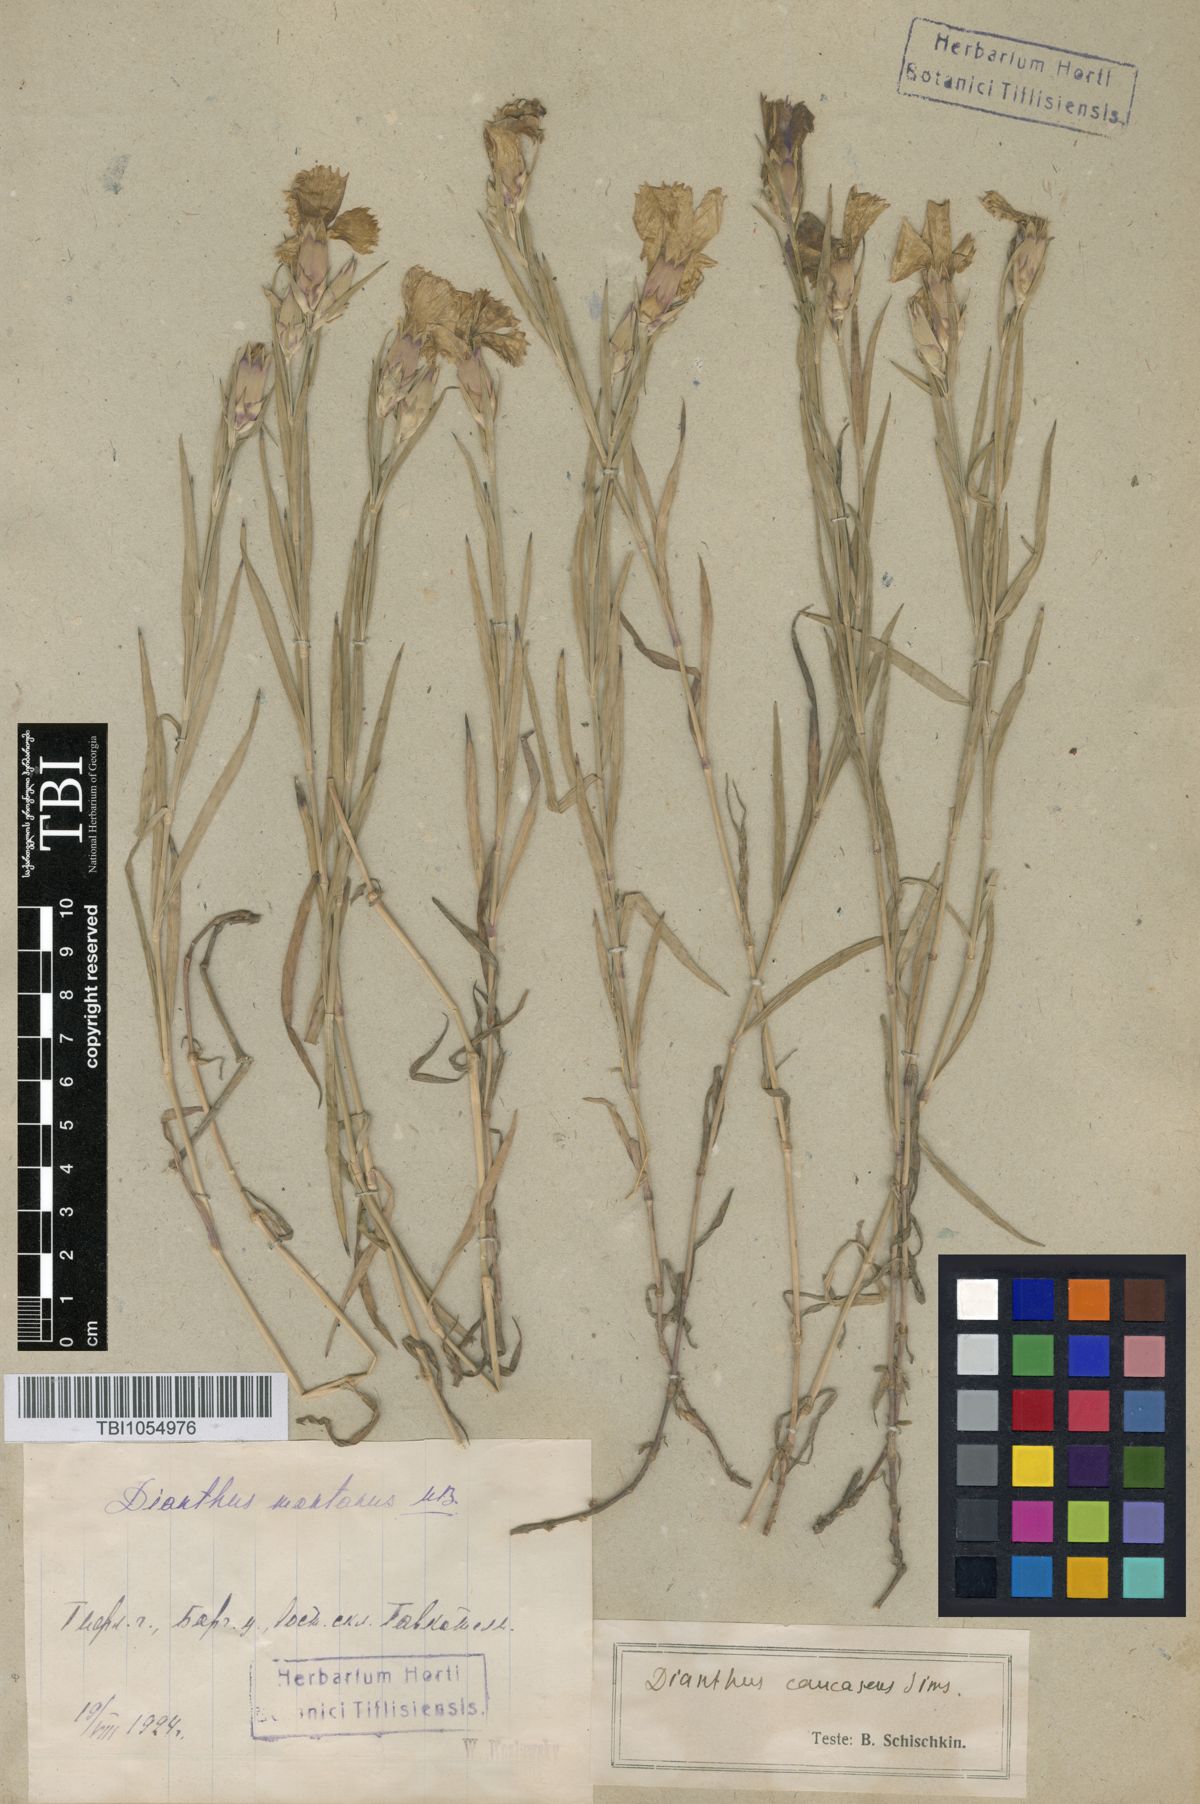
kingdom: Plantae
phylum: Tracheophyta
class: Magnoliopsida
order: Caryophyllales
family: Caryophyllaceae
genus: Dianthus
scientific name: Dianthus caucaseus
